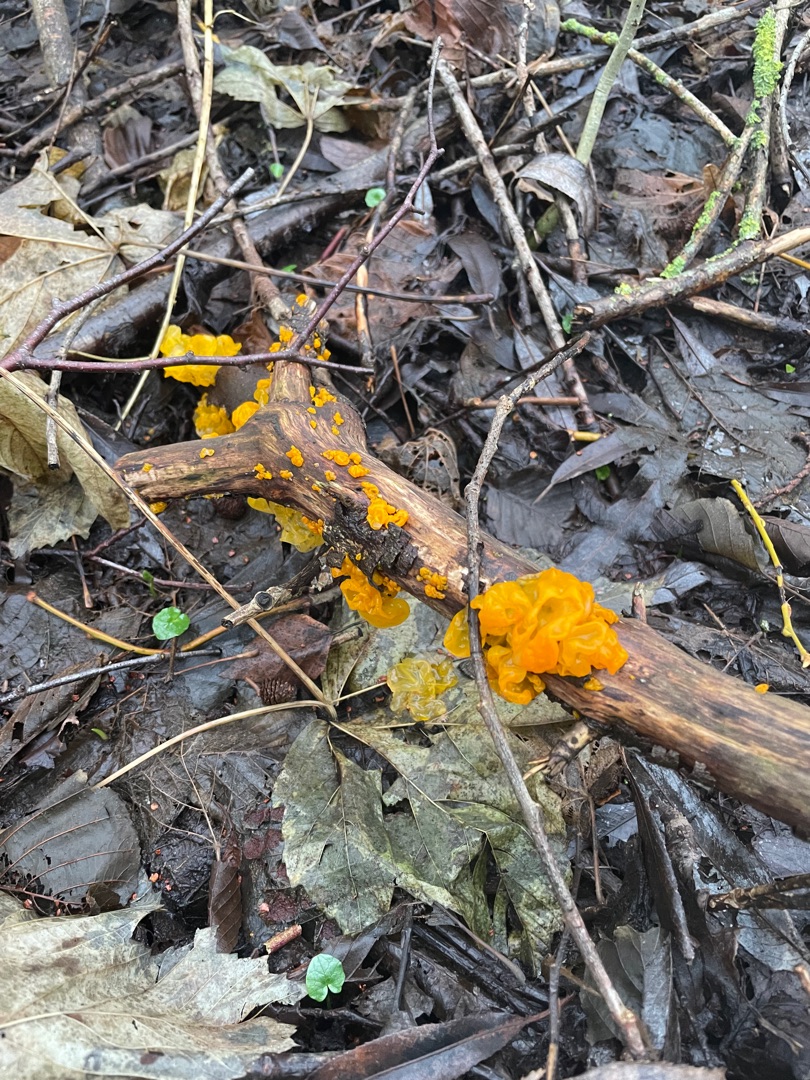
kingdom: Fungi
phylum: Basidiomycota
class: Tremellomycetes
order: Tremellales
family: Tremellaceae
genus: Tremella
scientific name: Tremella mesenterica
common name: Gul bævresvamp
